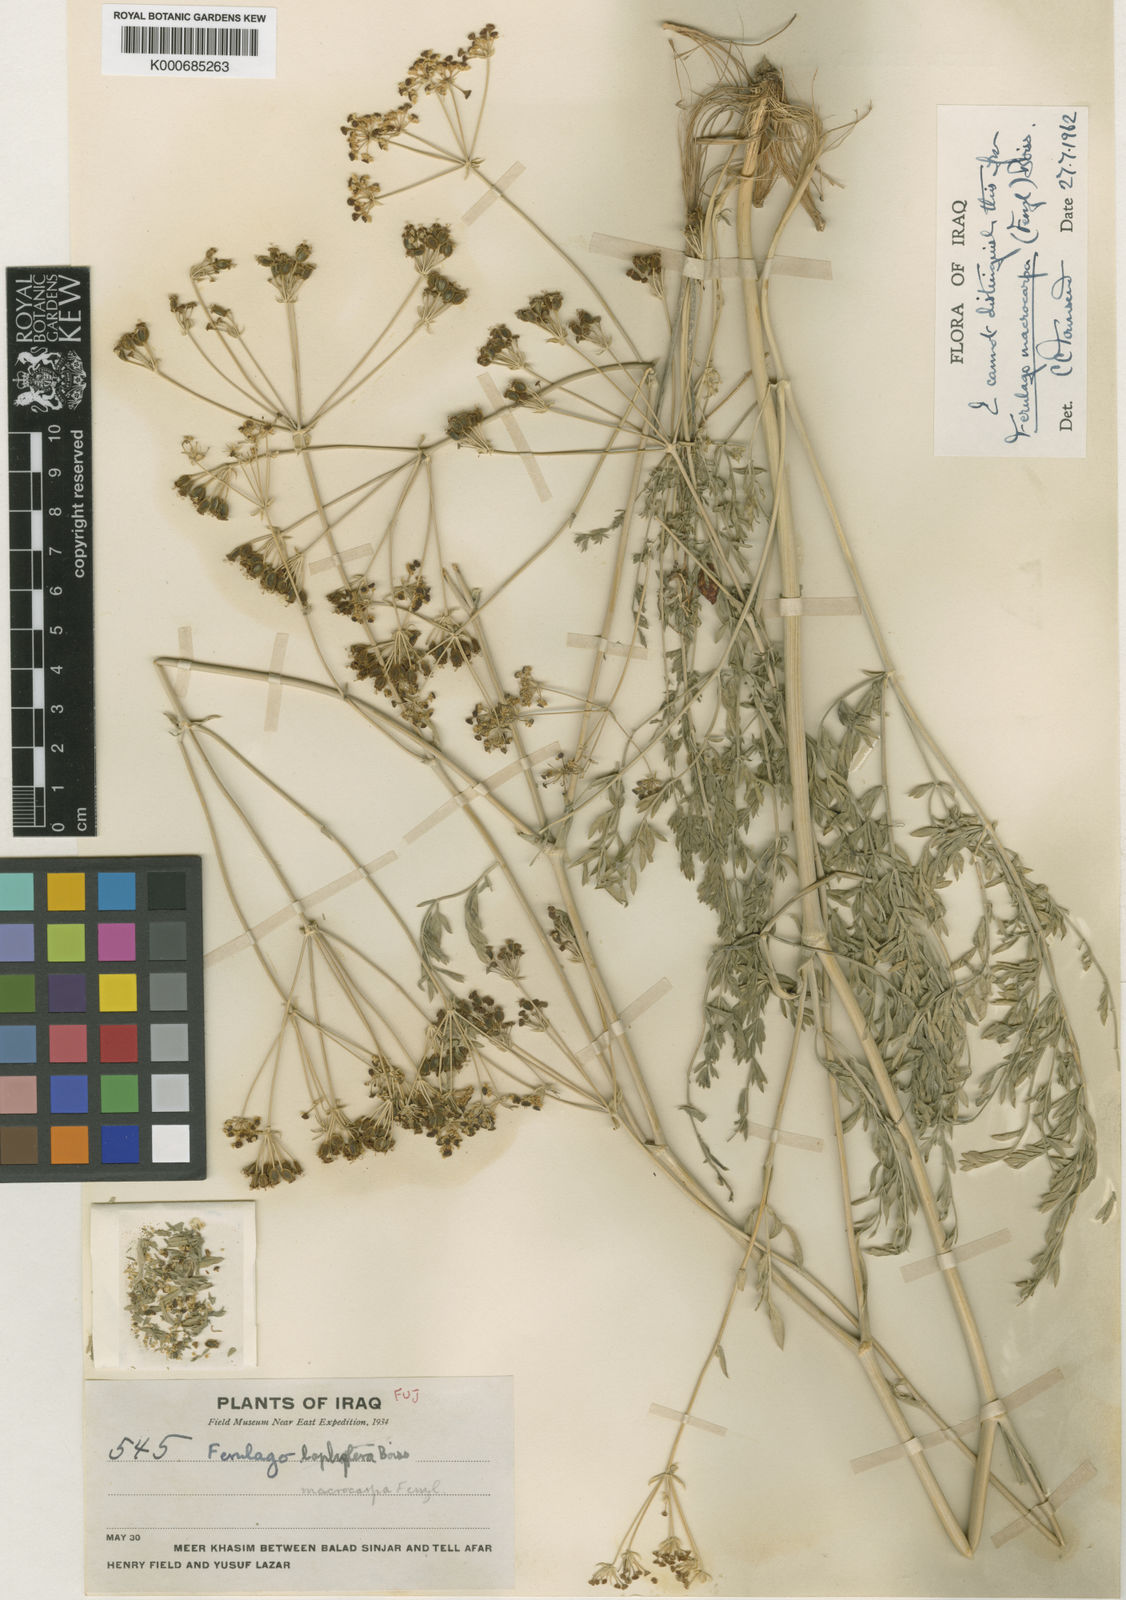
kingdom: Plantae
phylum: Tracheophyta
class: Magnoliopsida
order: Apiales
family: Apiaceae
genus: Ferulago
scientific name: Ferulago macrocarpa
